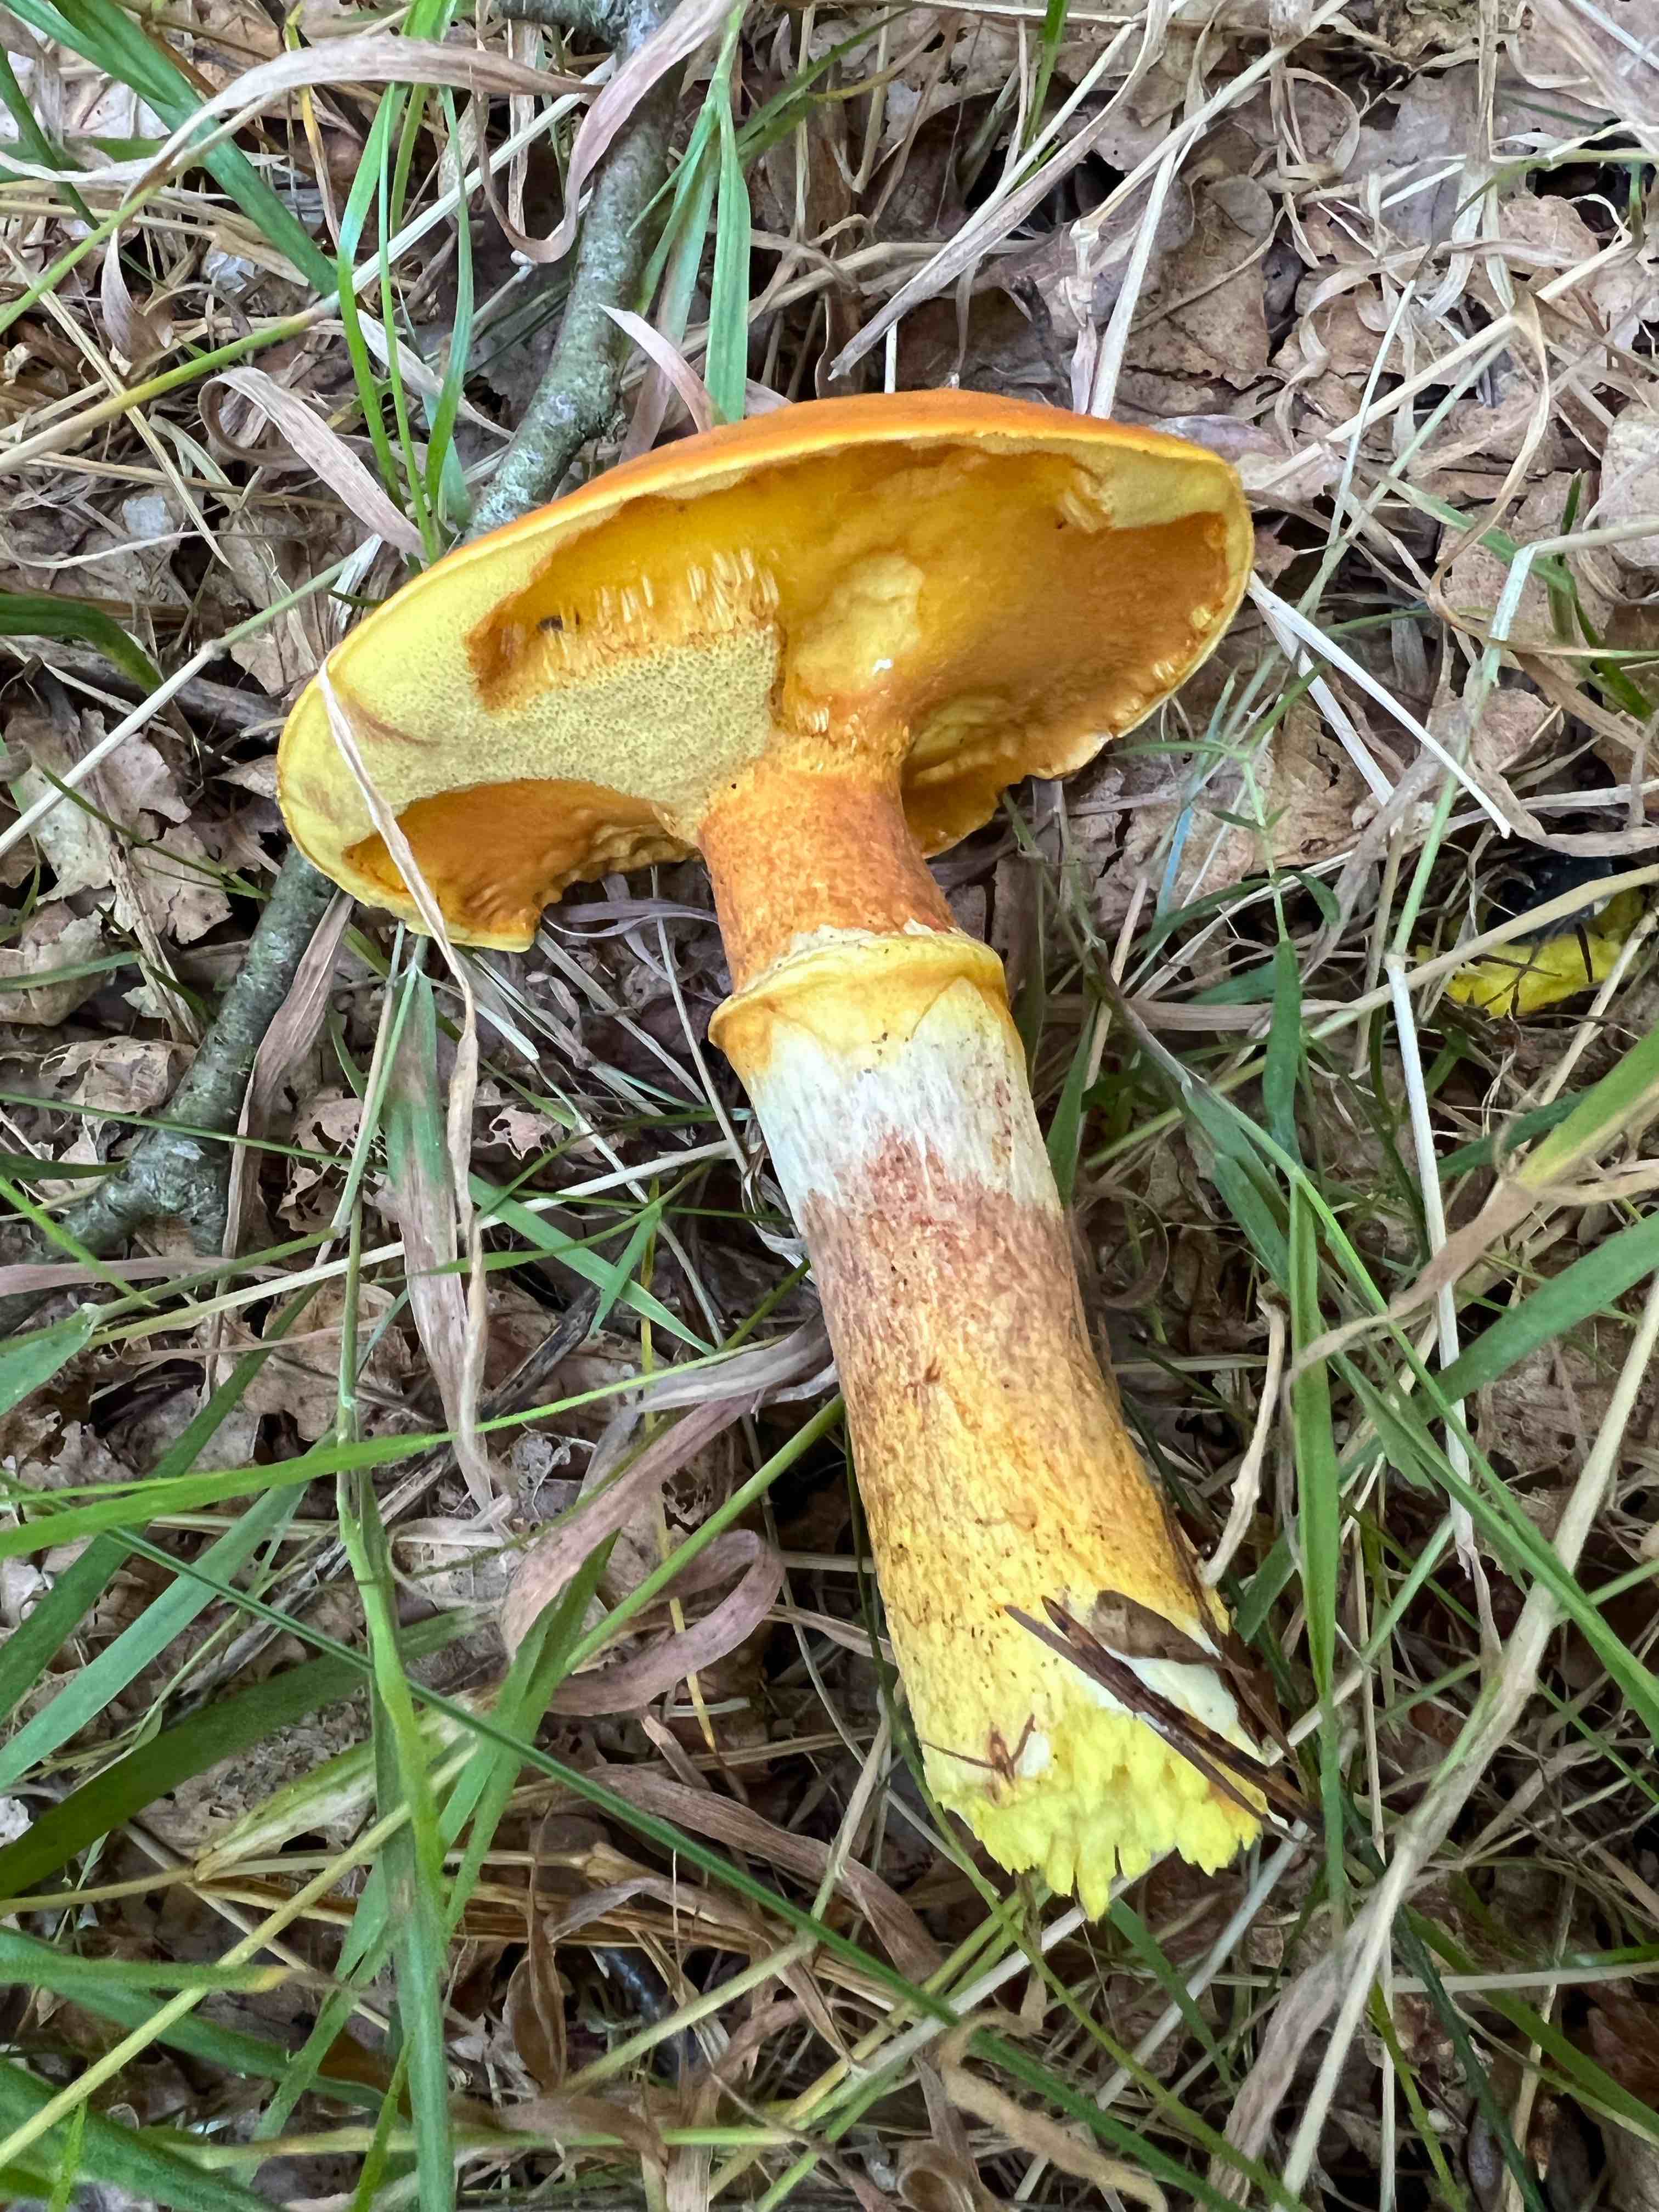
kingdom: Fungi
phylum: Basidiomycota
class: Agaricomycetes
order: Boletales
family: Suillaceae
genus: Suillus
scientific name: Suillus grevillei
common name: lærke-slimrørhat
